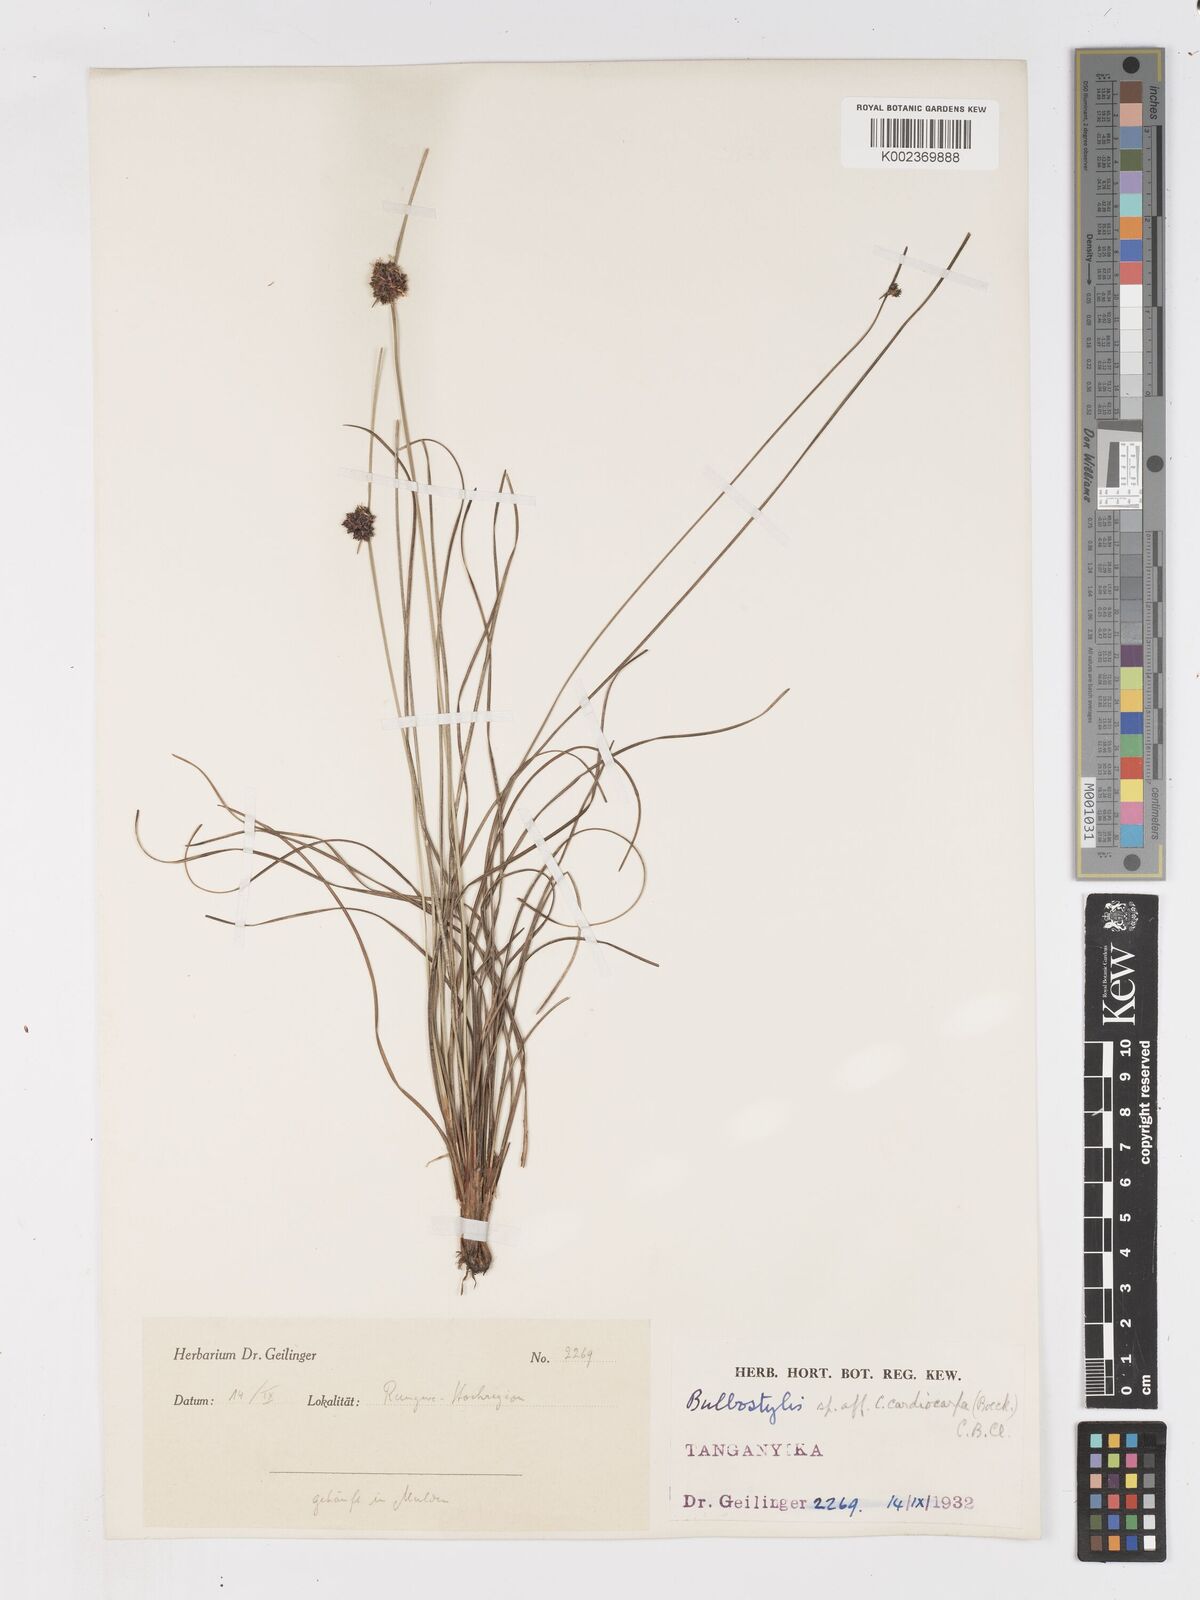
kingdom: Plantae
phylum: Tracheophyta
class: Liliopsida
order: Poales
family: Cyperaceae
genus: Ficinia
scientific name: Ficinia gracilis
